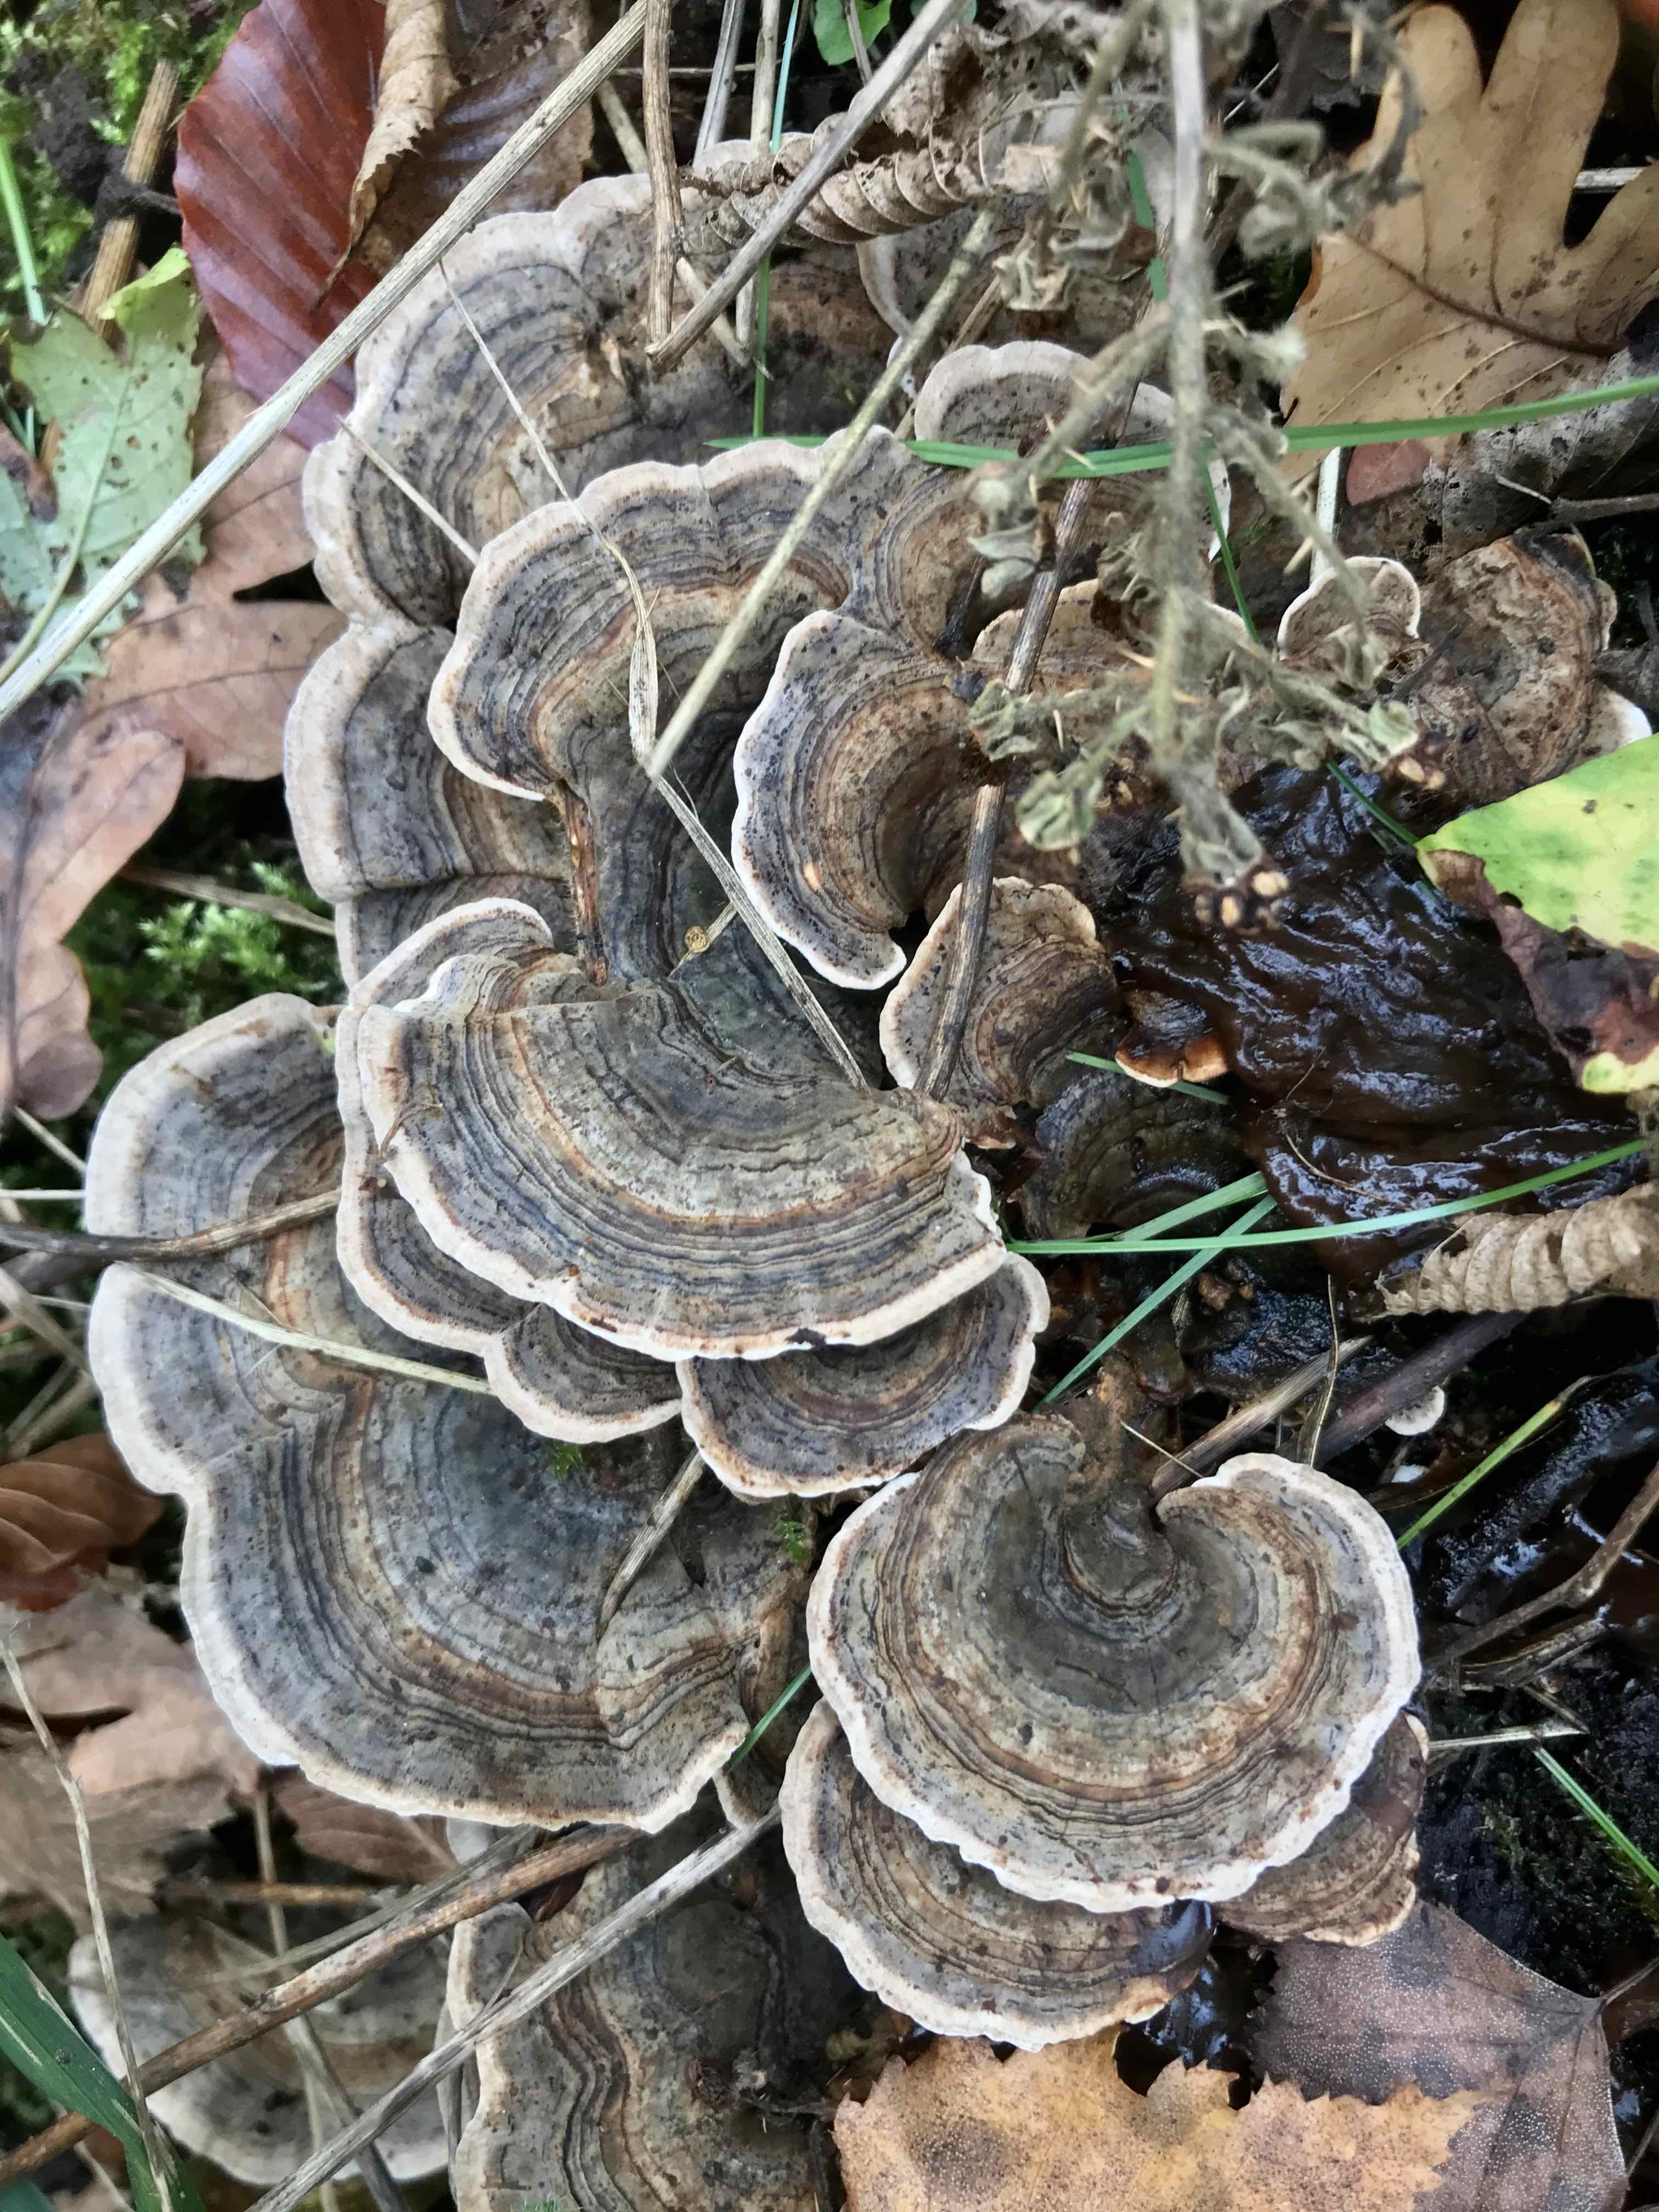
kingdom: Fungi
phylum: Basidiomycota
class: Agaricomycetes
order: Polyporales
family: Polyporaceae
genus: Trametes
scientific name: Trametes versicolor
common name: broget læderporesvamp
